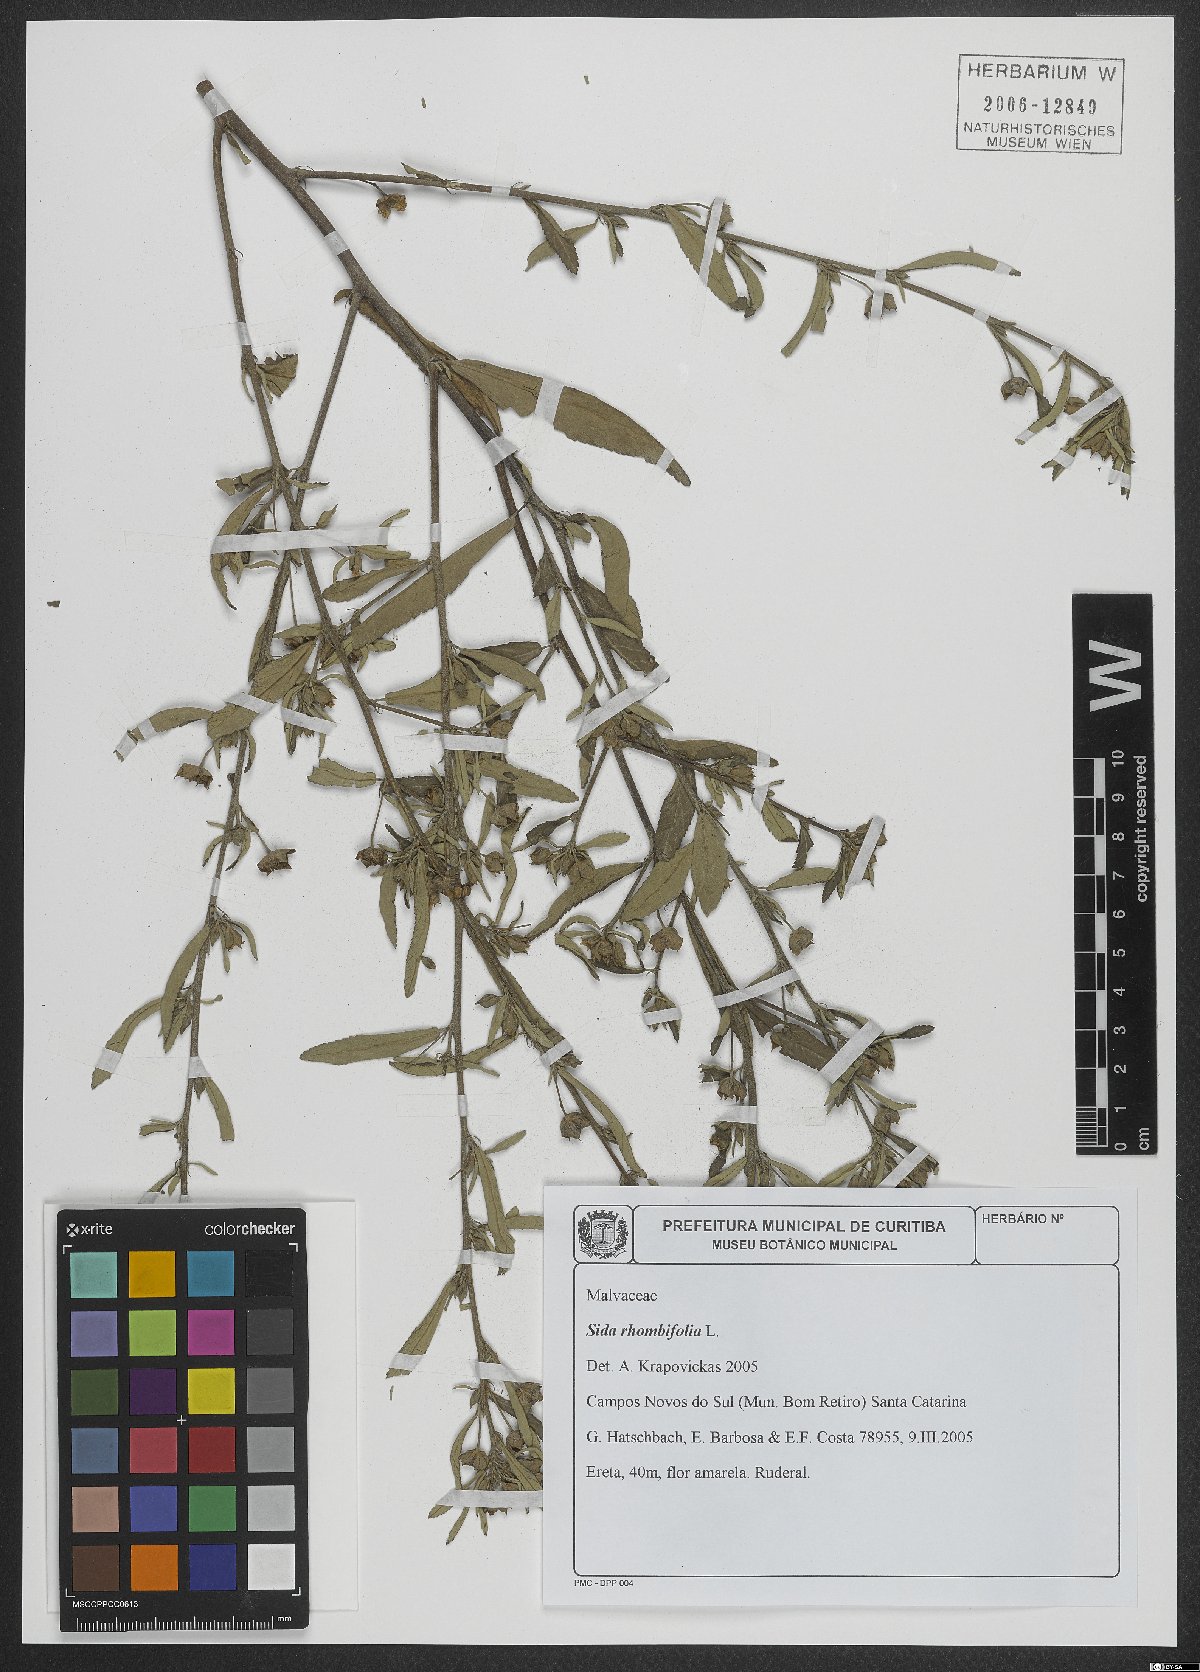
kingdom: Plantae
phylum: Tracheophyta
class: Magnoliopsida
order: Malvales
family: Malvaceae
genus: Sida
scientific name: Sida rhombifolia
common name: Queensland-hemp
